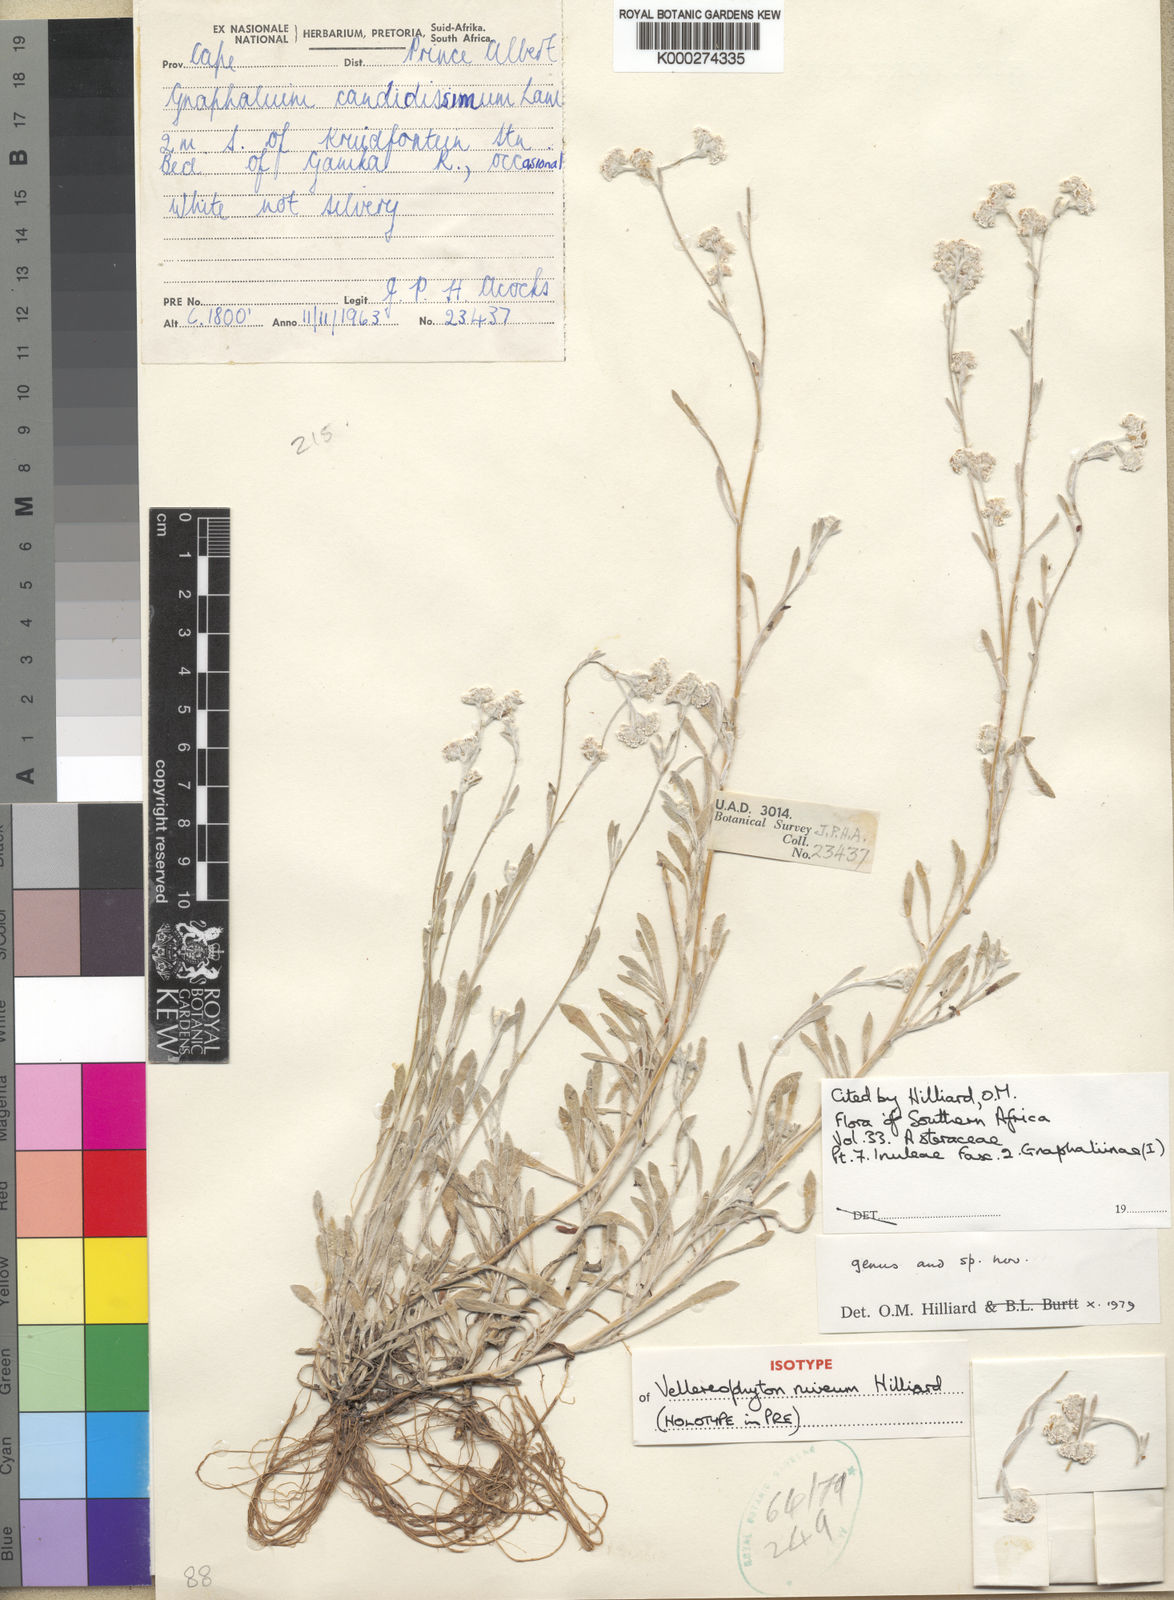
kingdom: Plantae
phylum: Tracheophyta
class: Magnoliopsida
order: Asterales
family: Asteraceae
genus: Vellereophyton
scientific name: Vellereophyton niveum
